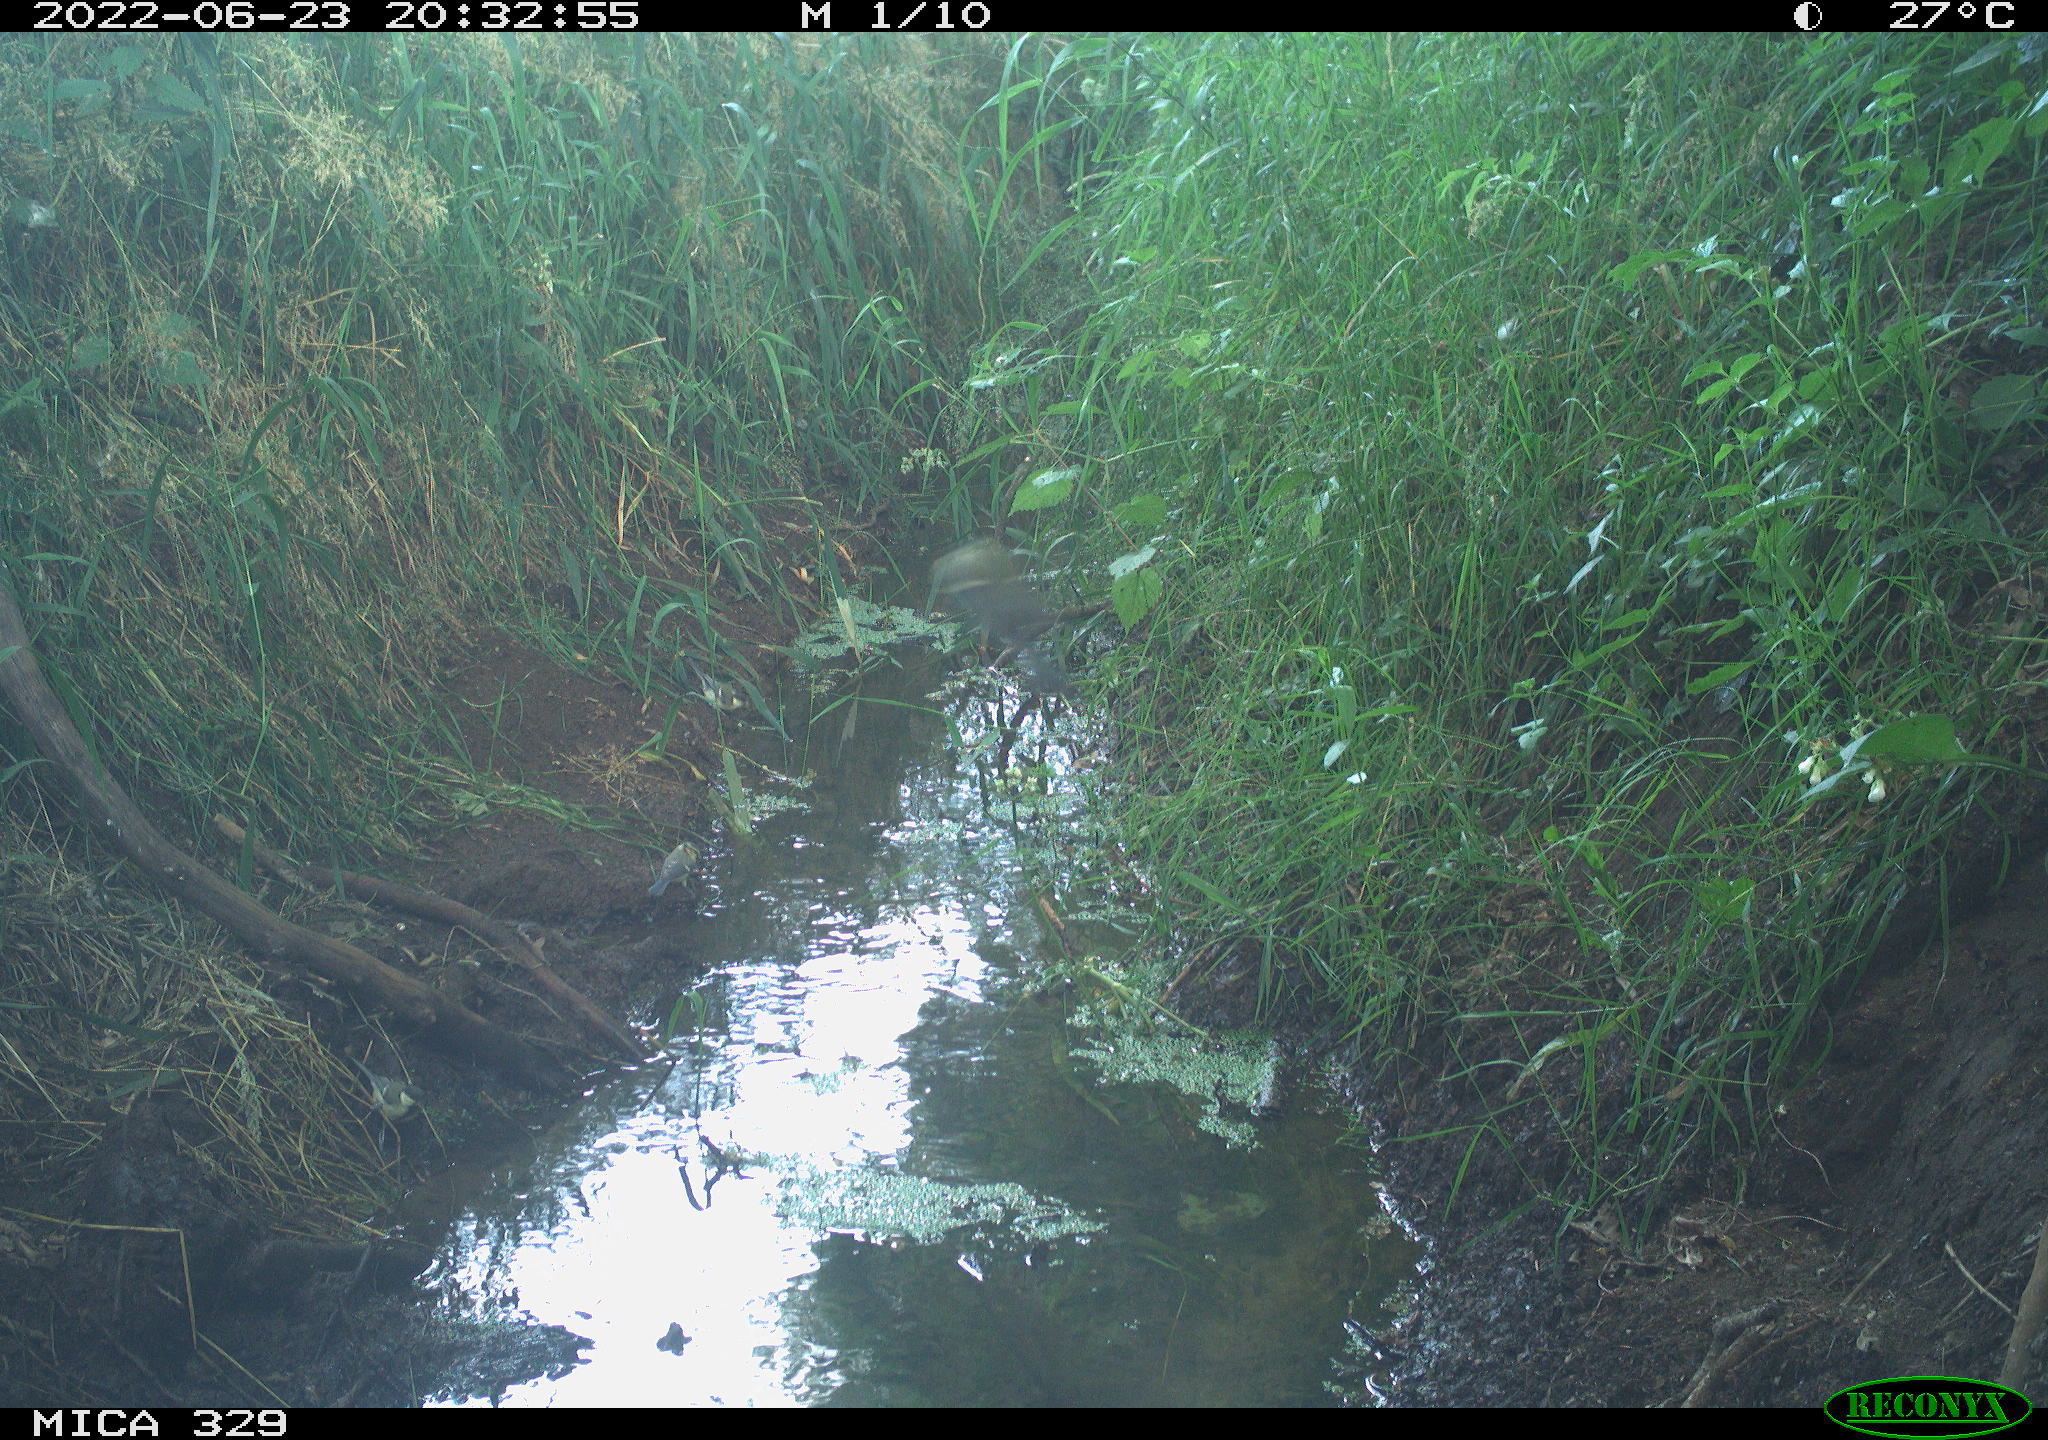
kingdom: Animalia
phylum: Chordata
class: Aves
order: Passeriformes
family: Paridae
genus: Cyanistes
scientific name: Cyanistes caeruleus
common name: Eurasian blue tit
